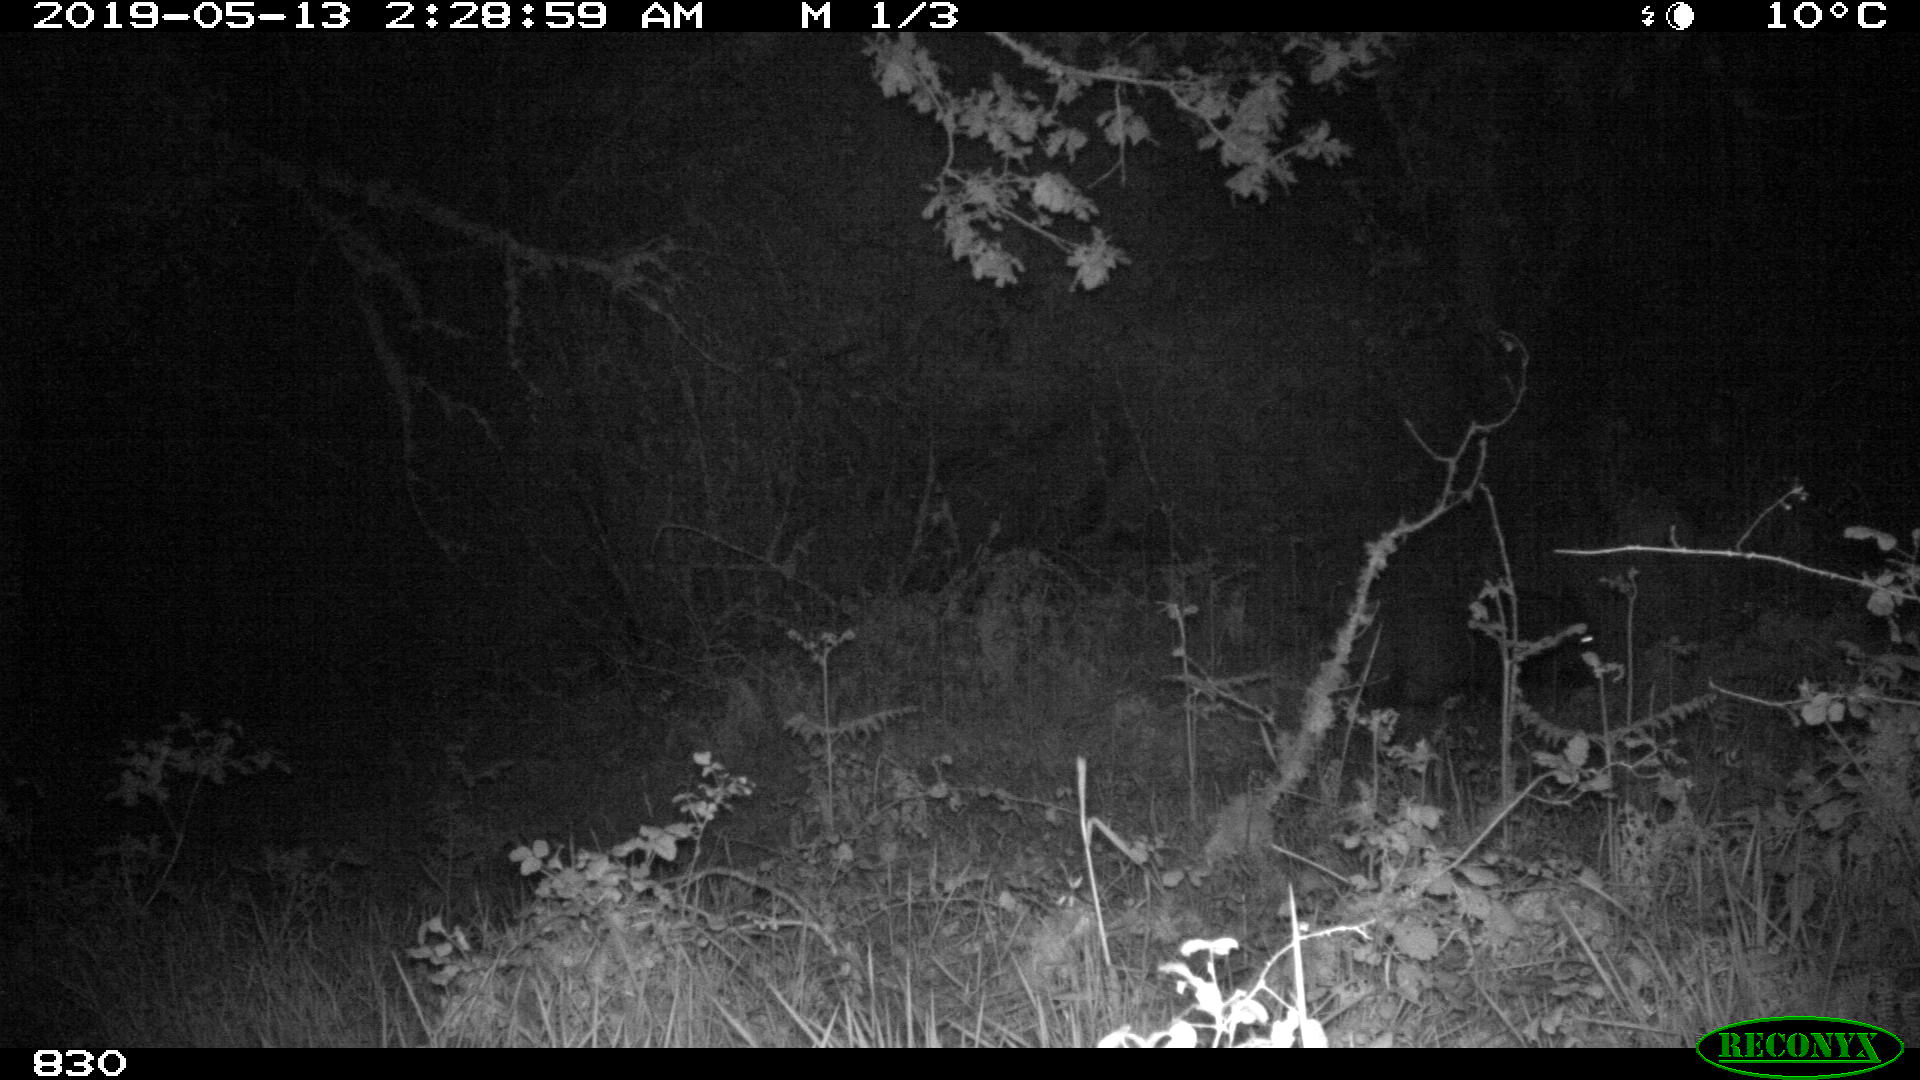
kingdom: Animalia
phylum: Chordata
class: Mammalia
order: Artiodactyla
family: Suidae
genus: Sus
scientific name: Sus scrofa
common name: Wild boar
